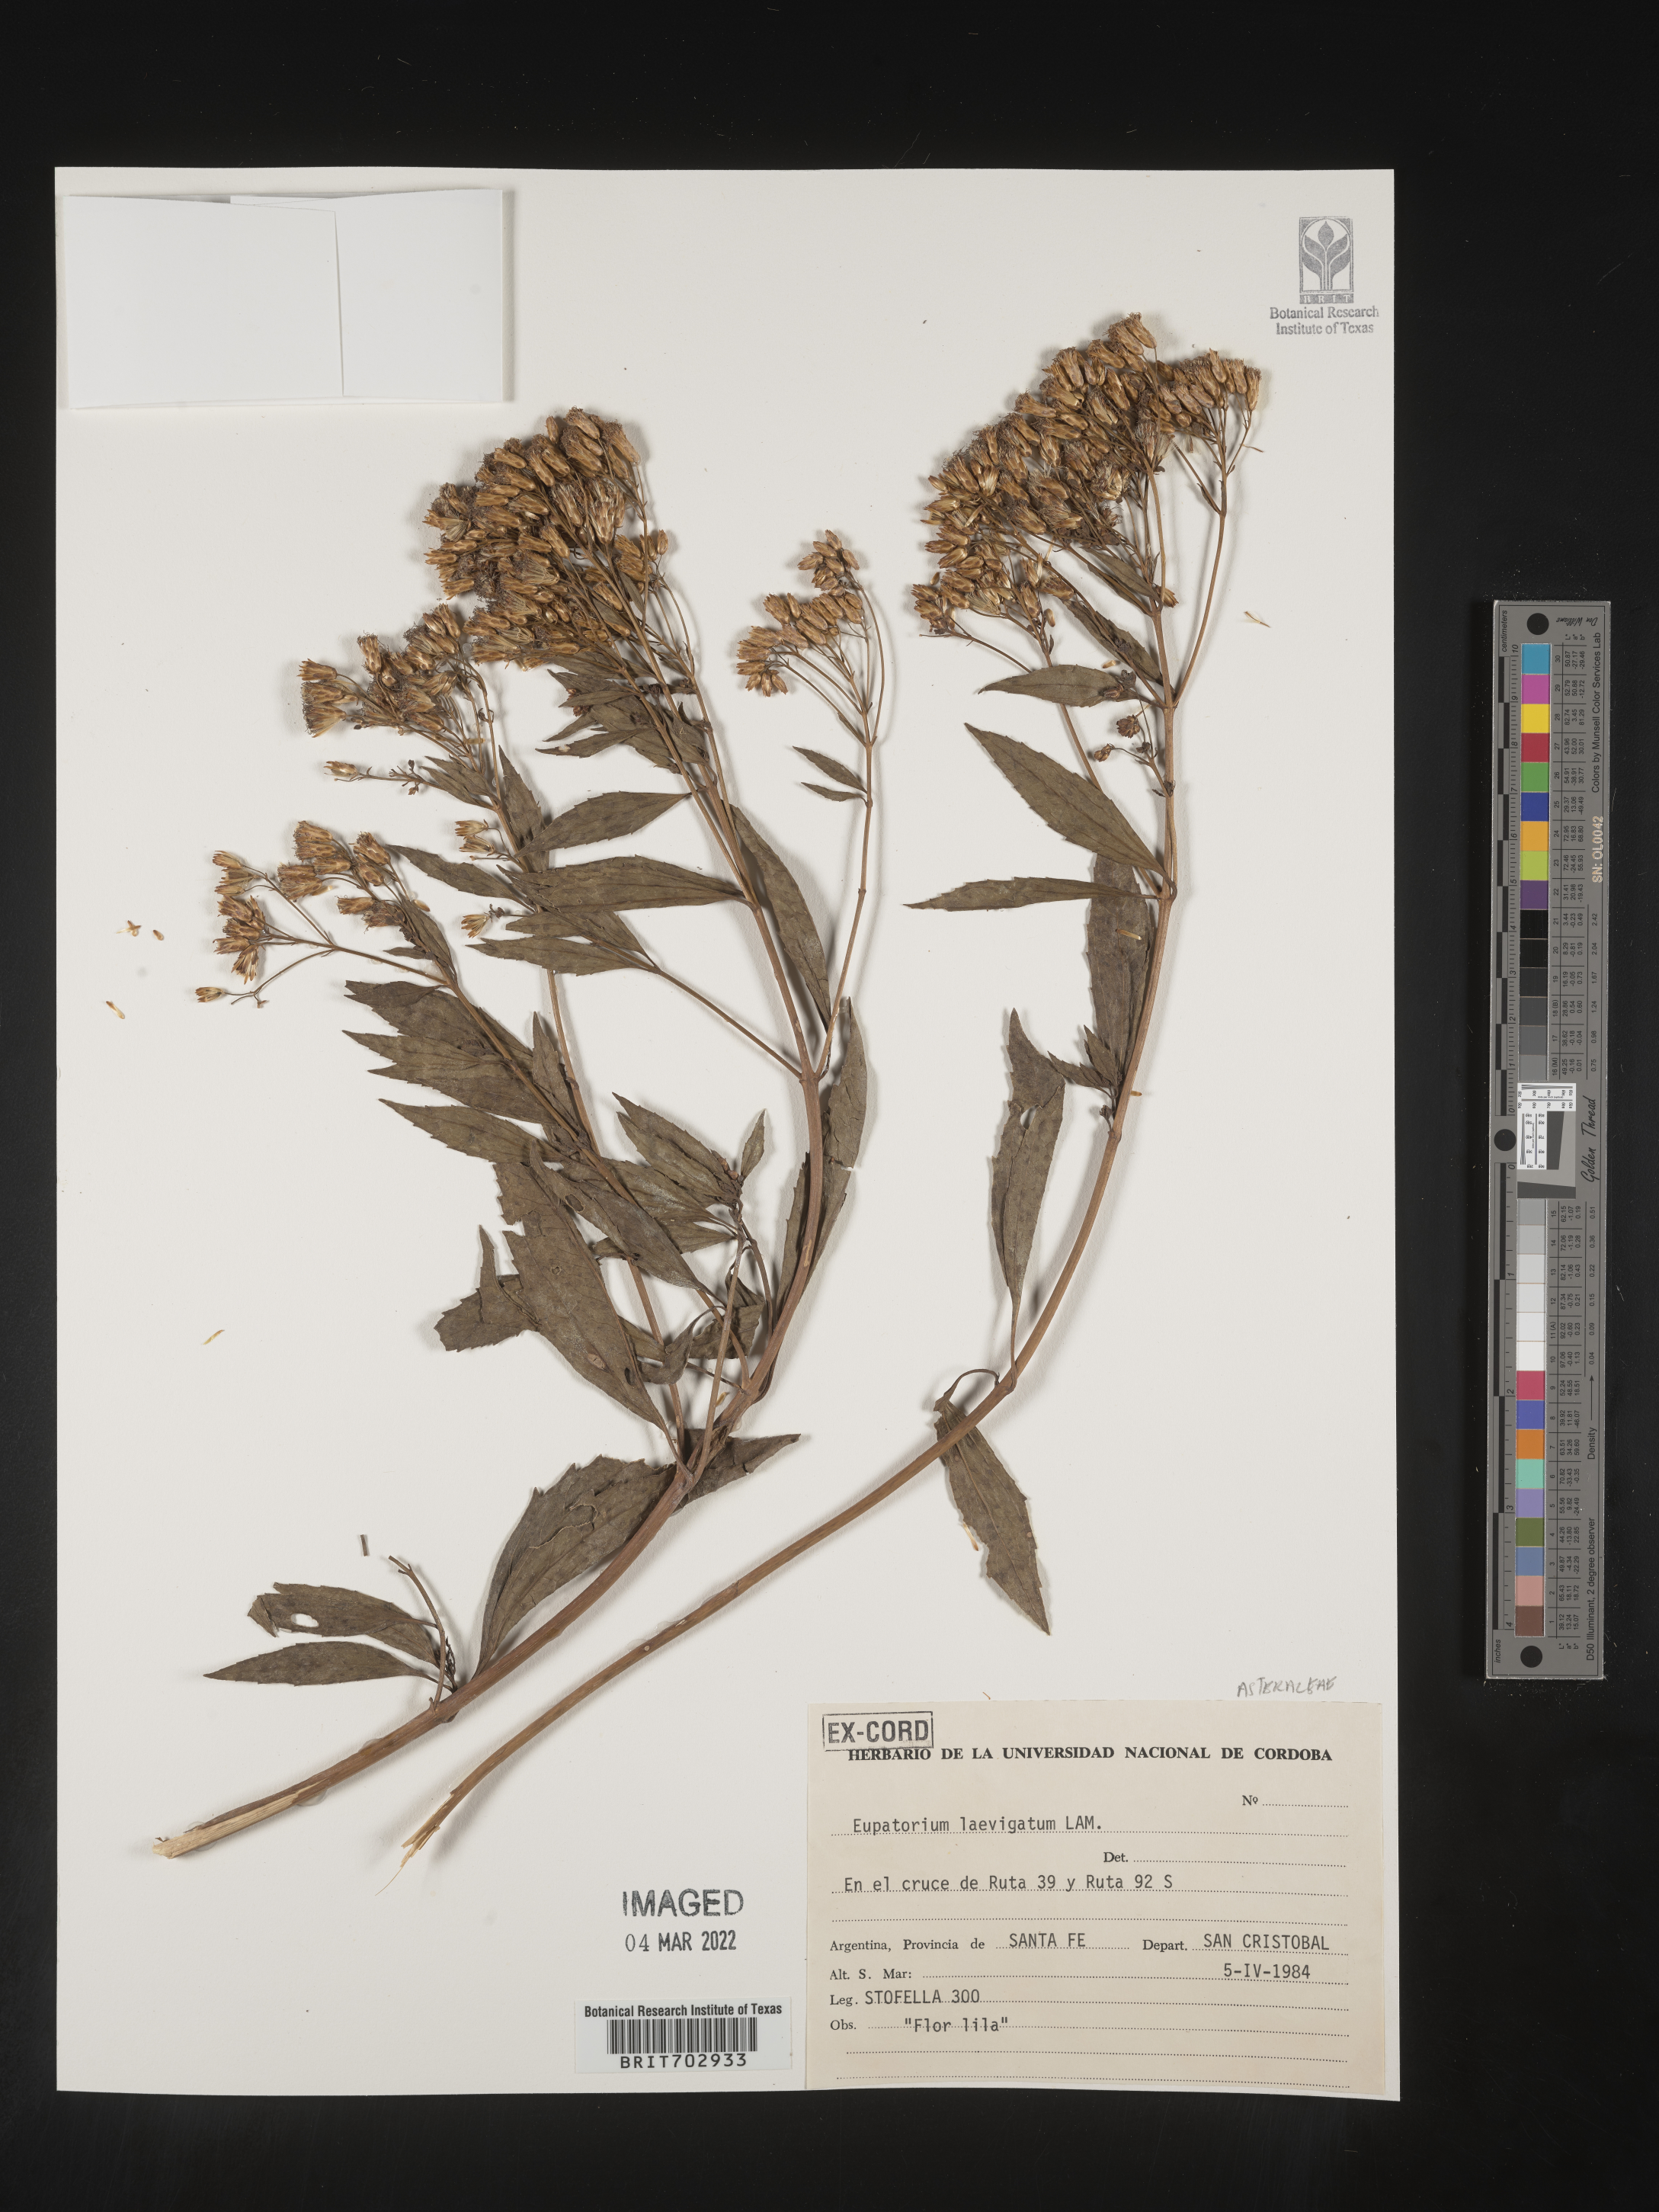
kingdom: Plantae
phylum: Tracheophyta
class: Magnoliopsida
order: Asterales
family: Asteraceae
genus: Eupatorium
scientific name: Eupatorium
